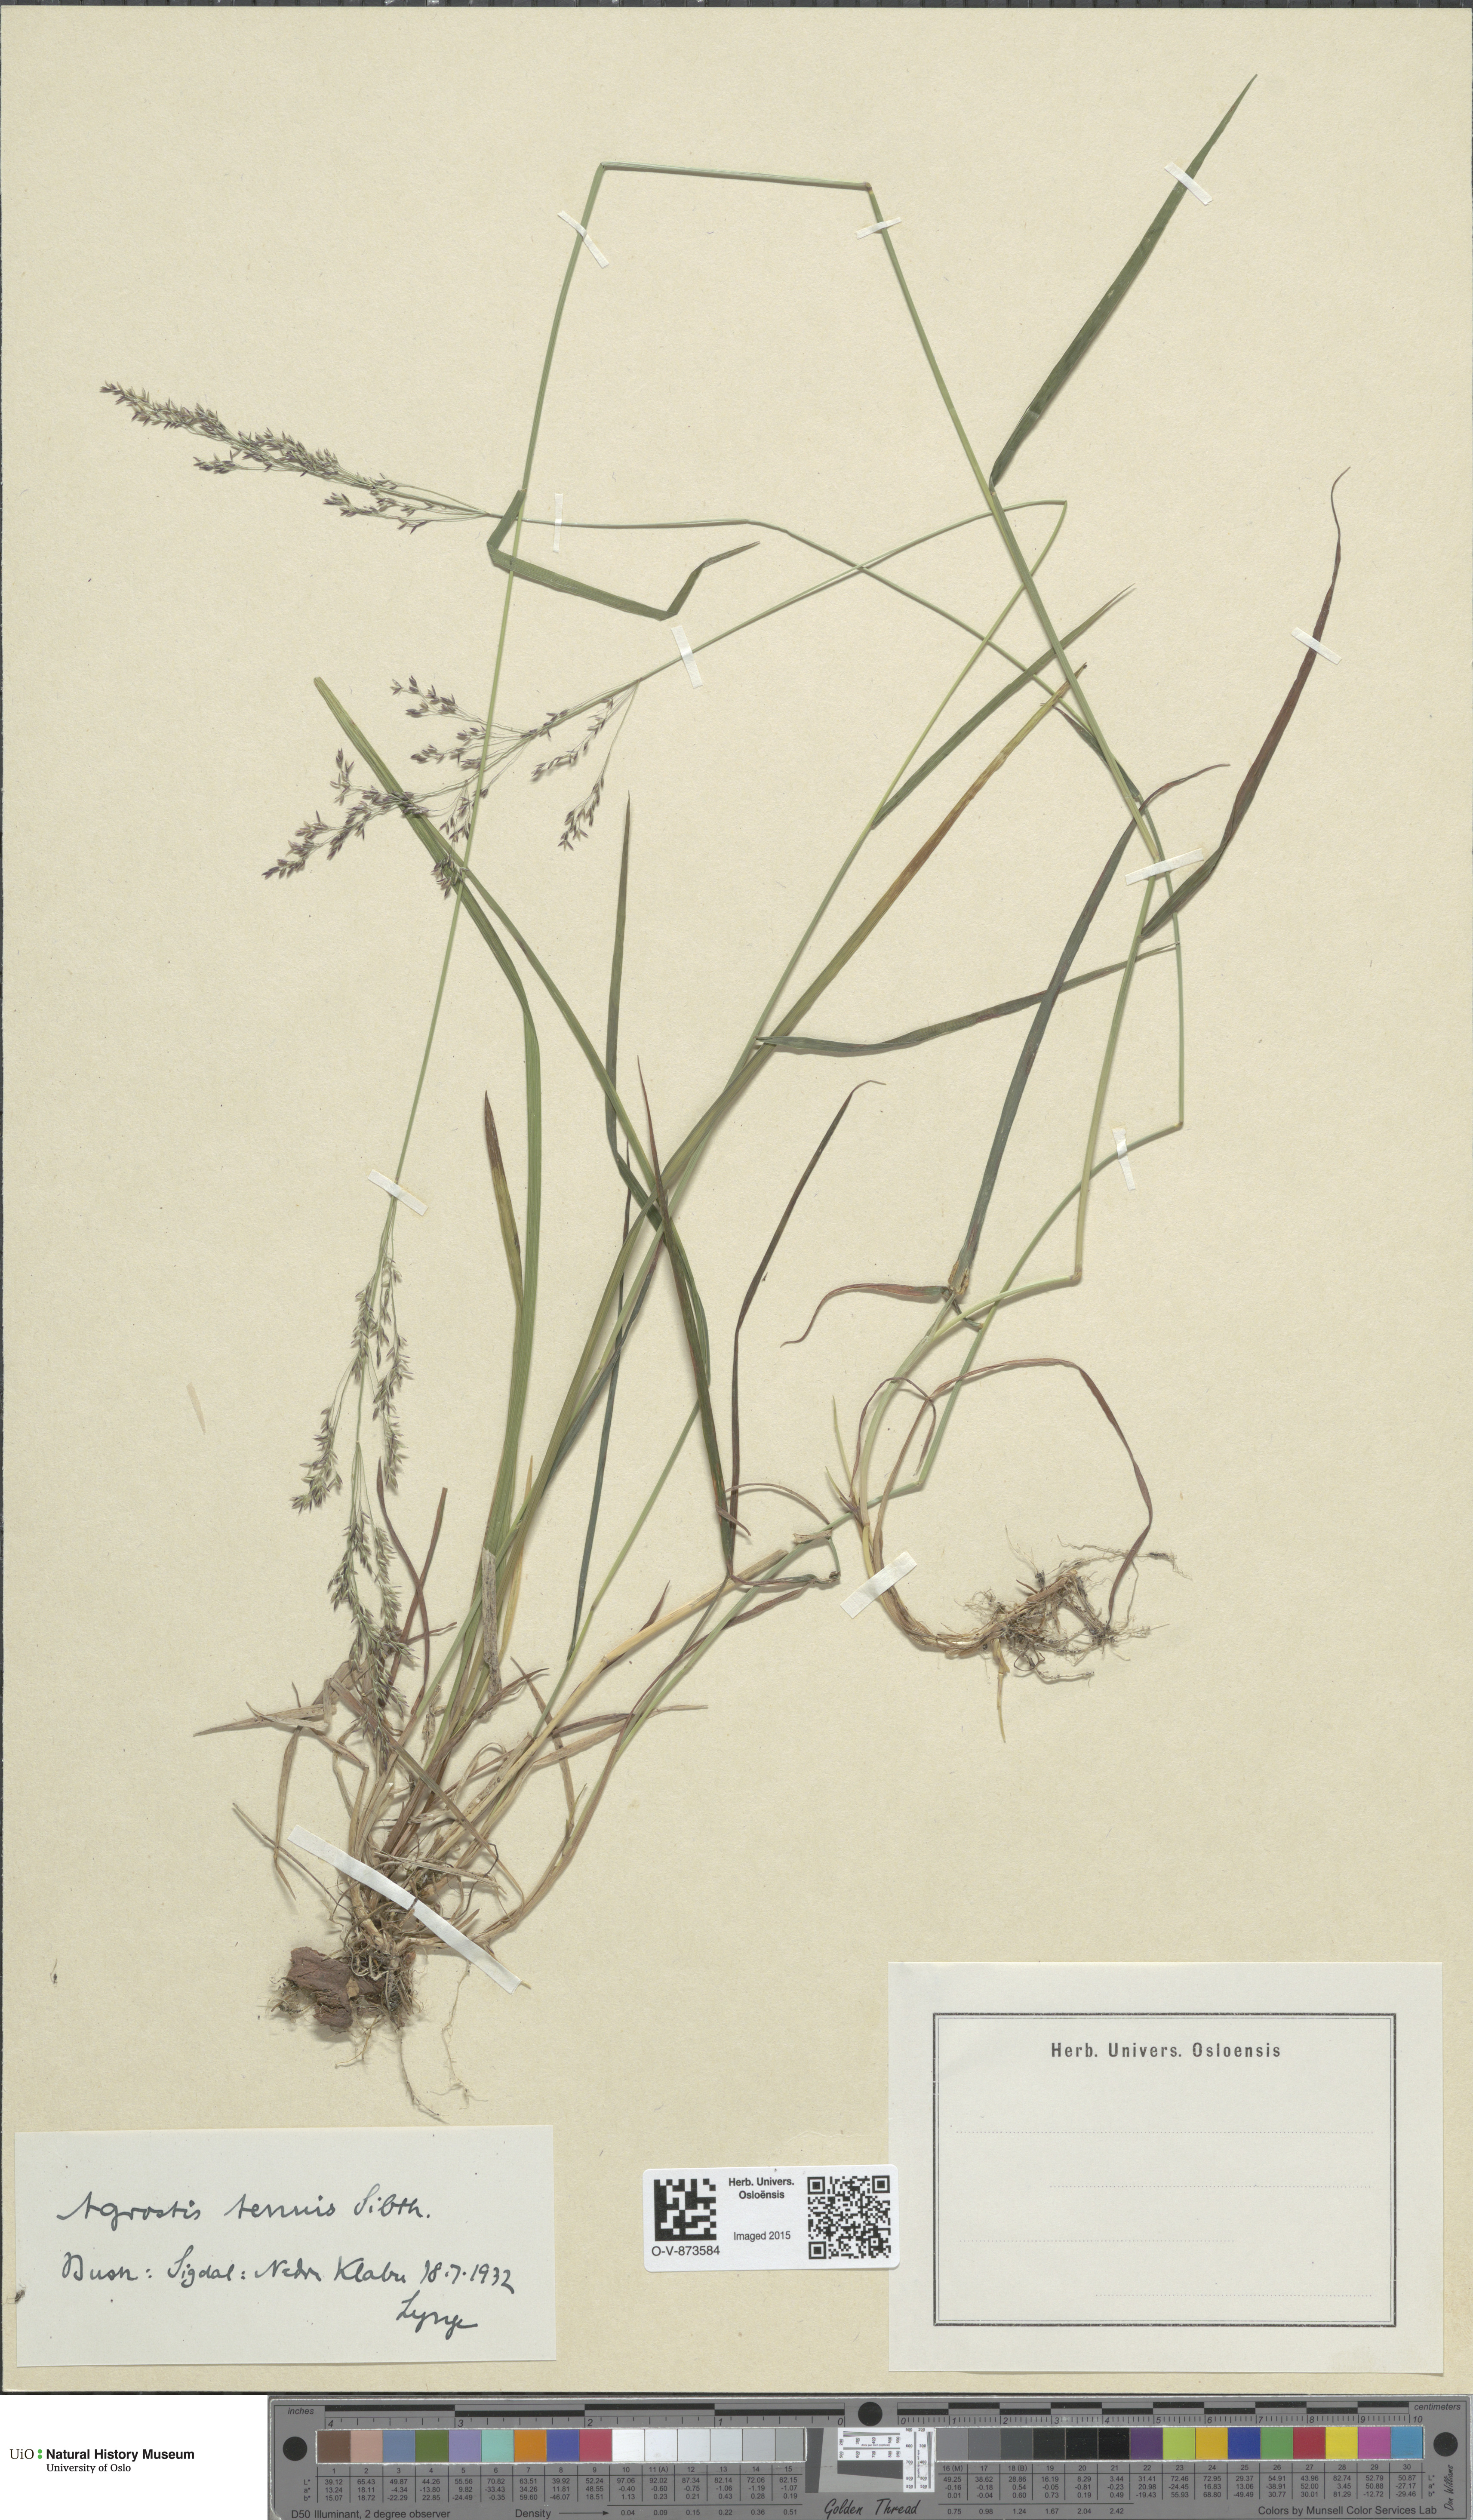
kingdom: Plantae
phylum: Tracheophyta
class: Liliopsida
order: Poales
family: Poaceae
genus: Agrostis
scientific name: Agrostis capillaris
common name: Colonial bentgrass
